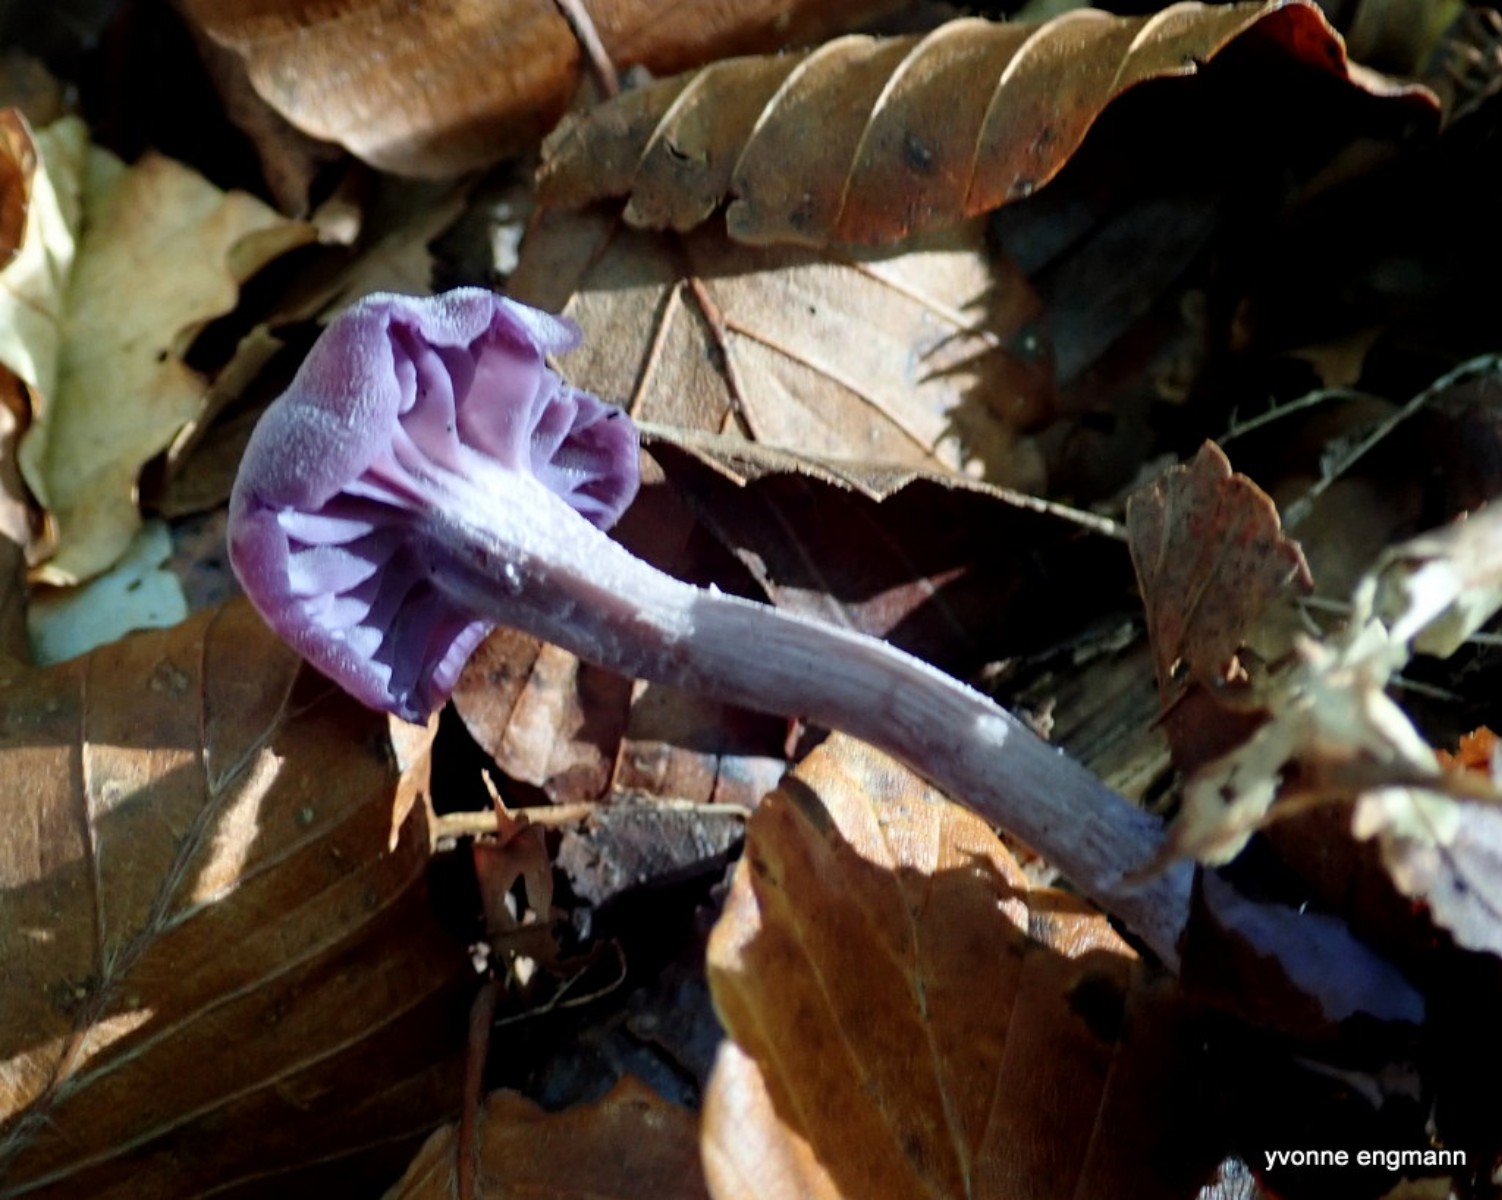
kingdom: Fungi
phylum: Basidiomycota
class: Agaricomycetes
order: Agaricales
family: Hydnangiaceae
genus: Laccaria
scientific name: Laccaria amethystina
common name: violet ametysthat
